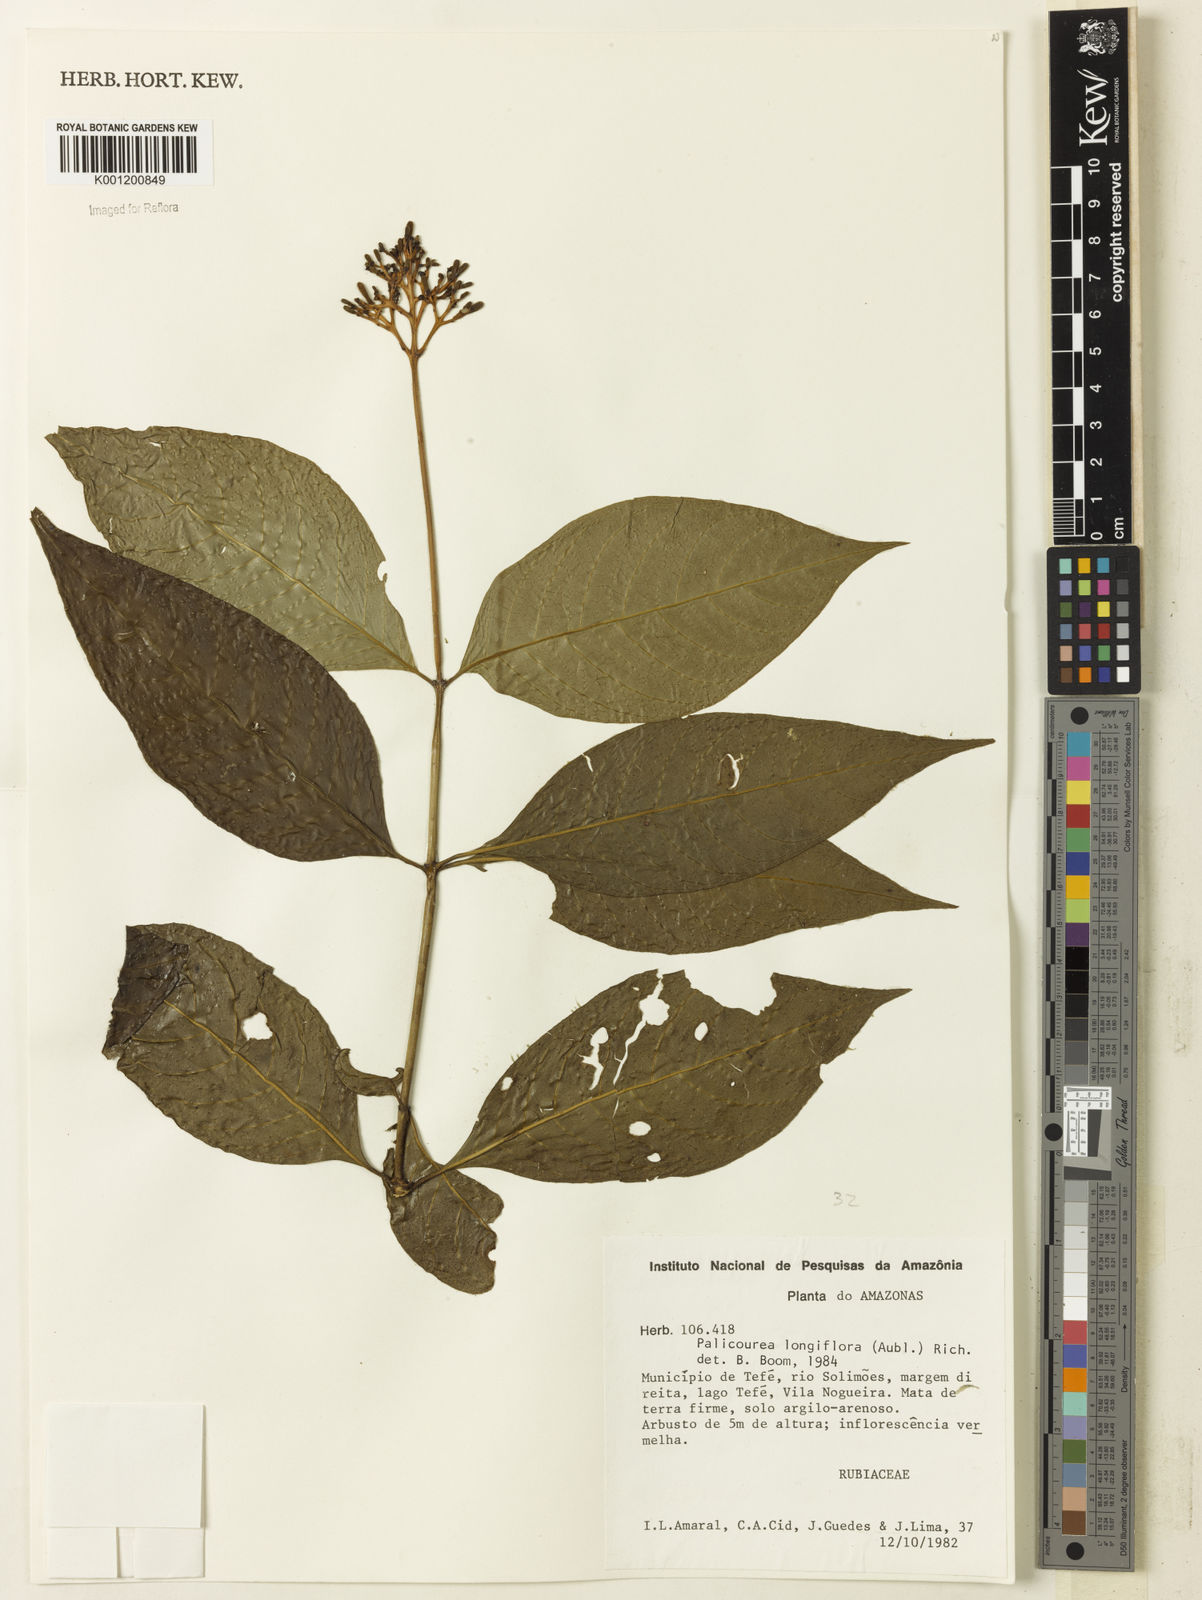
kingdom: Plantae
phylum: Tracheophyta
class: Magnoliopsida
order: Gentianales
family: Rubiaceae
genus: Palicourea
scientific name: Palicourea longiflora
